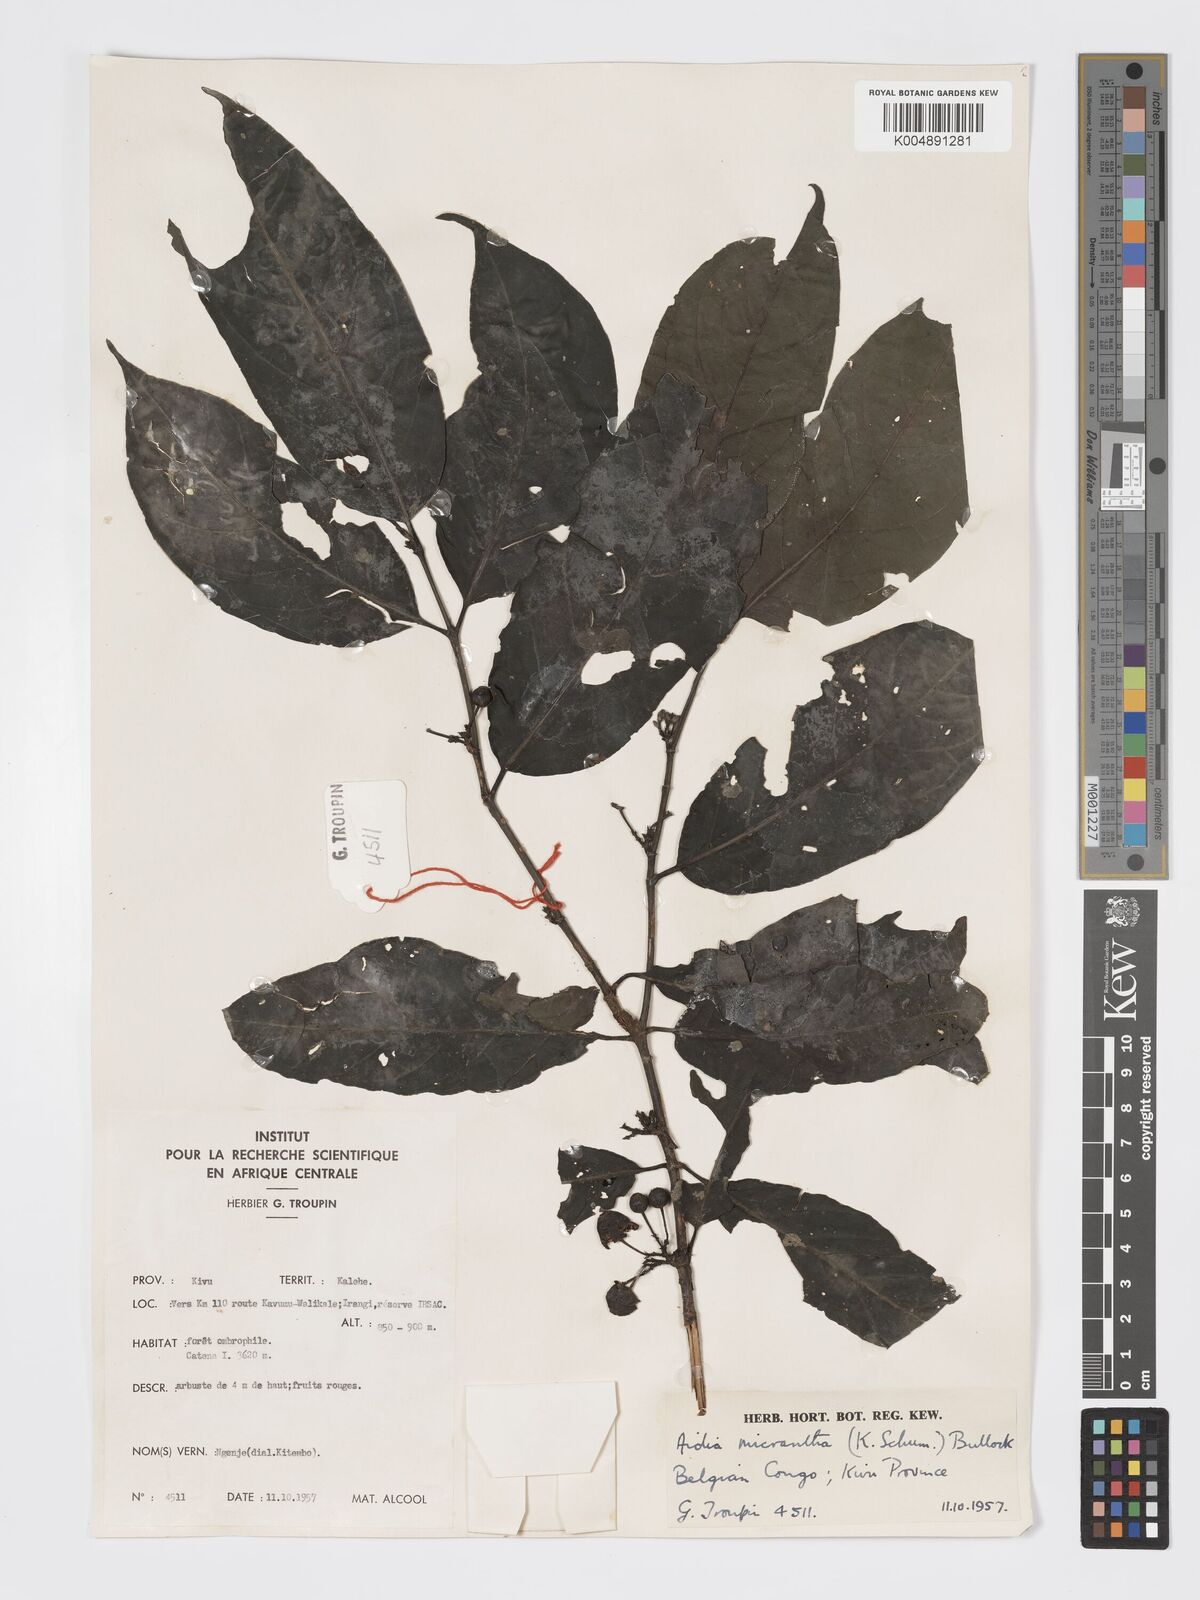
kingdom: Plantae
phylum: Tracheophyta
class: Magnoliopsida
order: Gentianales
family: Rubiaceae
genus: Aidia
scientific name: Aidia micrantha
